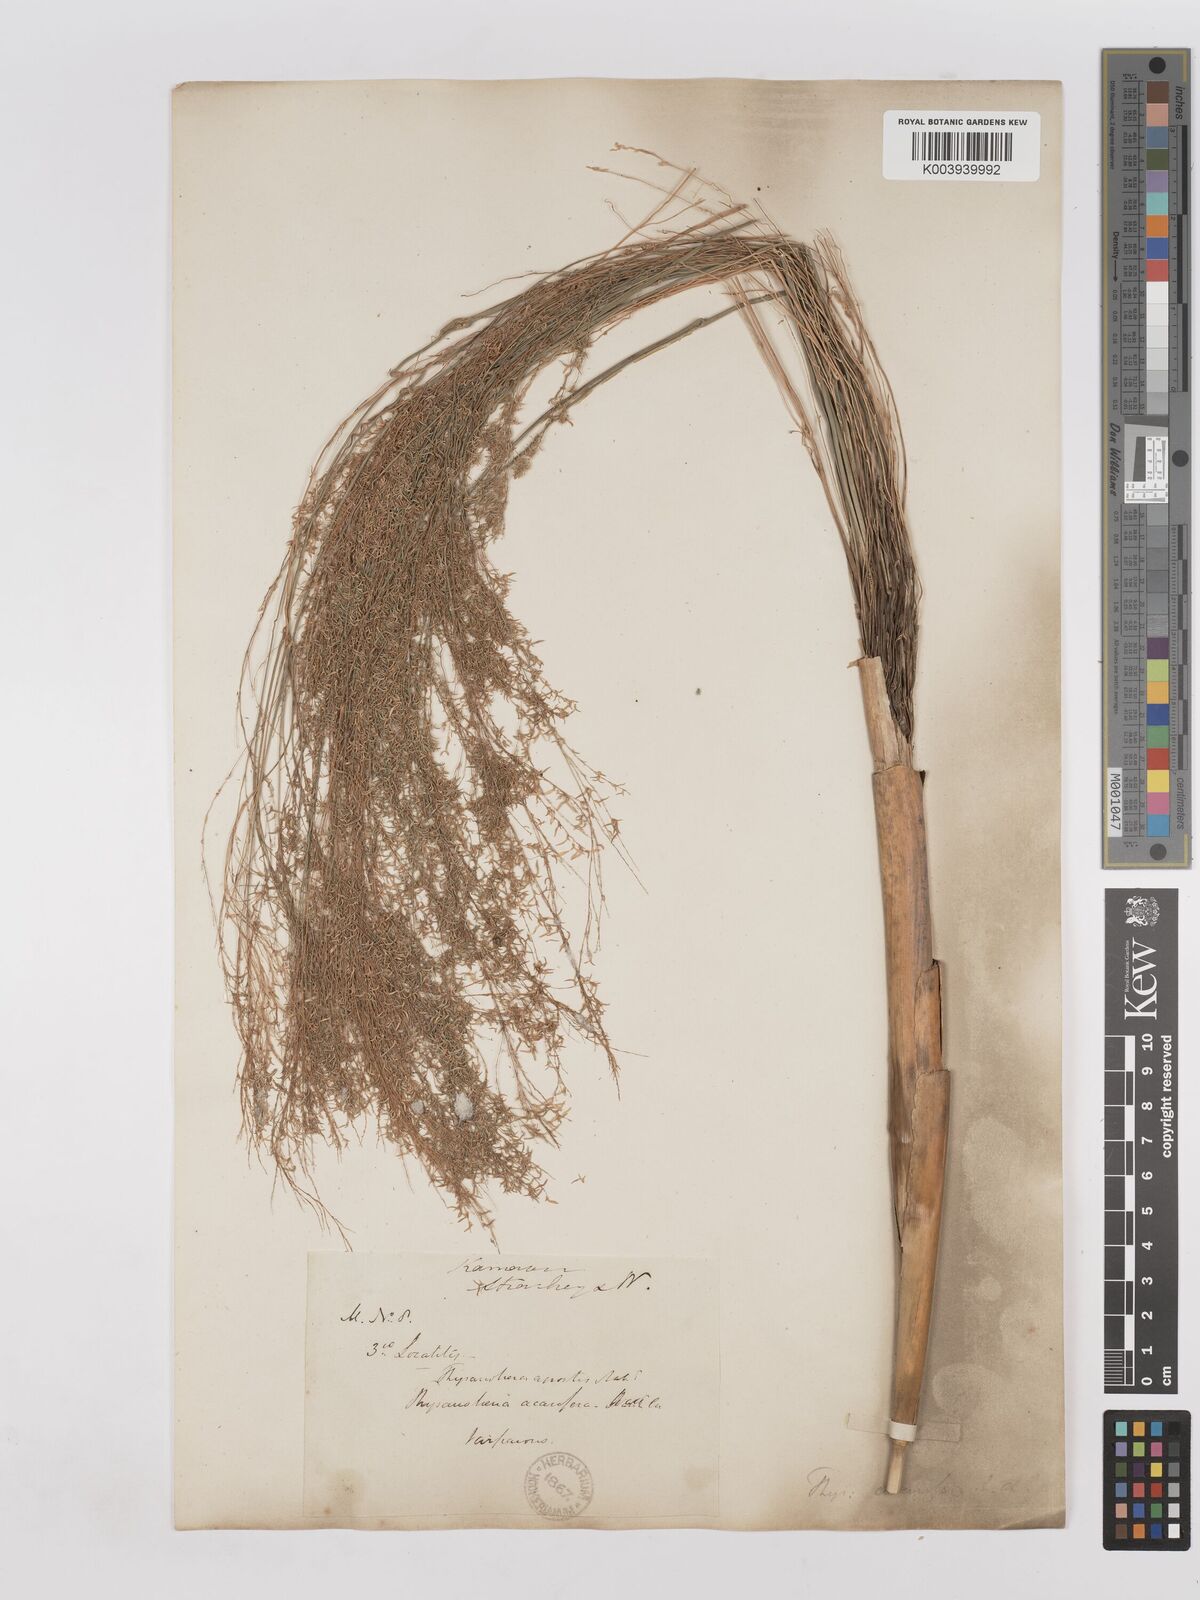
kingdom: Plantae
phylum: Tracheophyta
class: Liliopsida
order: Poales
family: Poaceae
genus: Thysanolaena
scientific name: Thysanolaena latifolia
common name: Tiger grass
